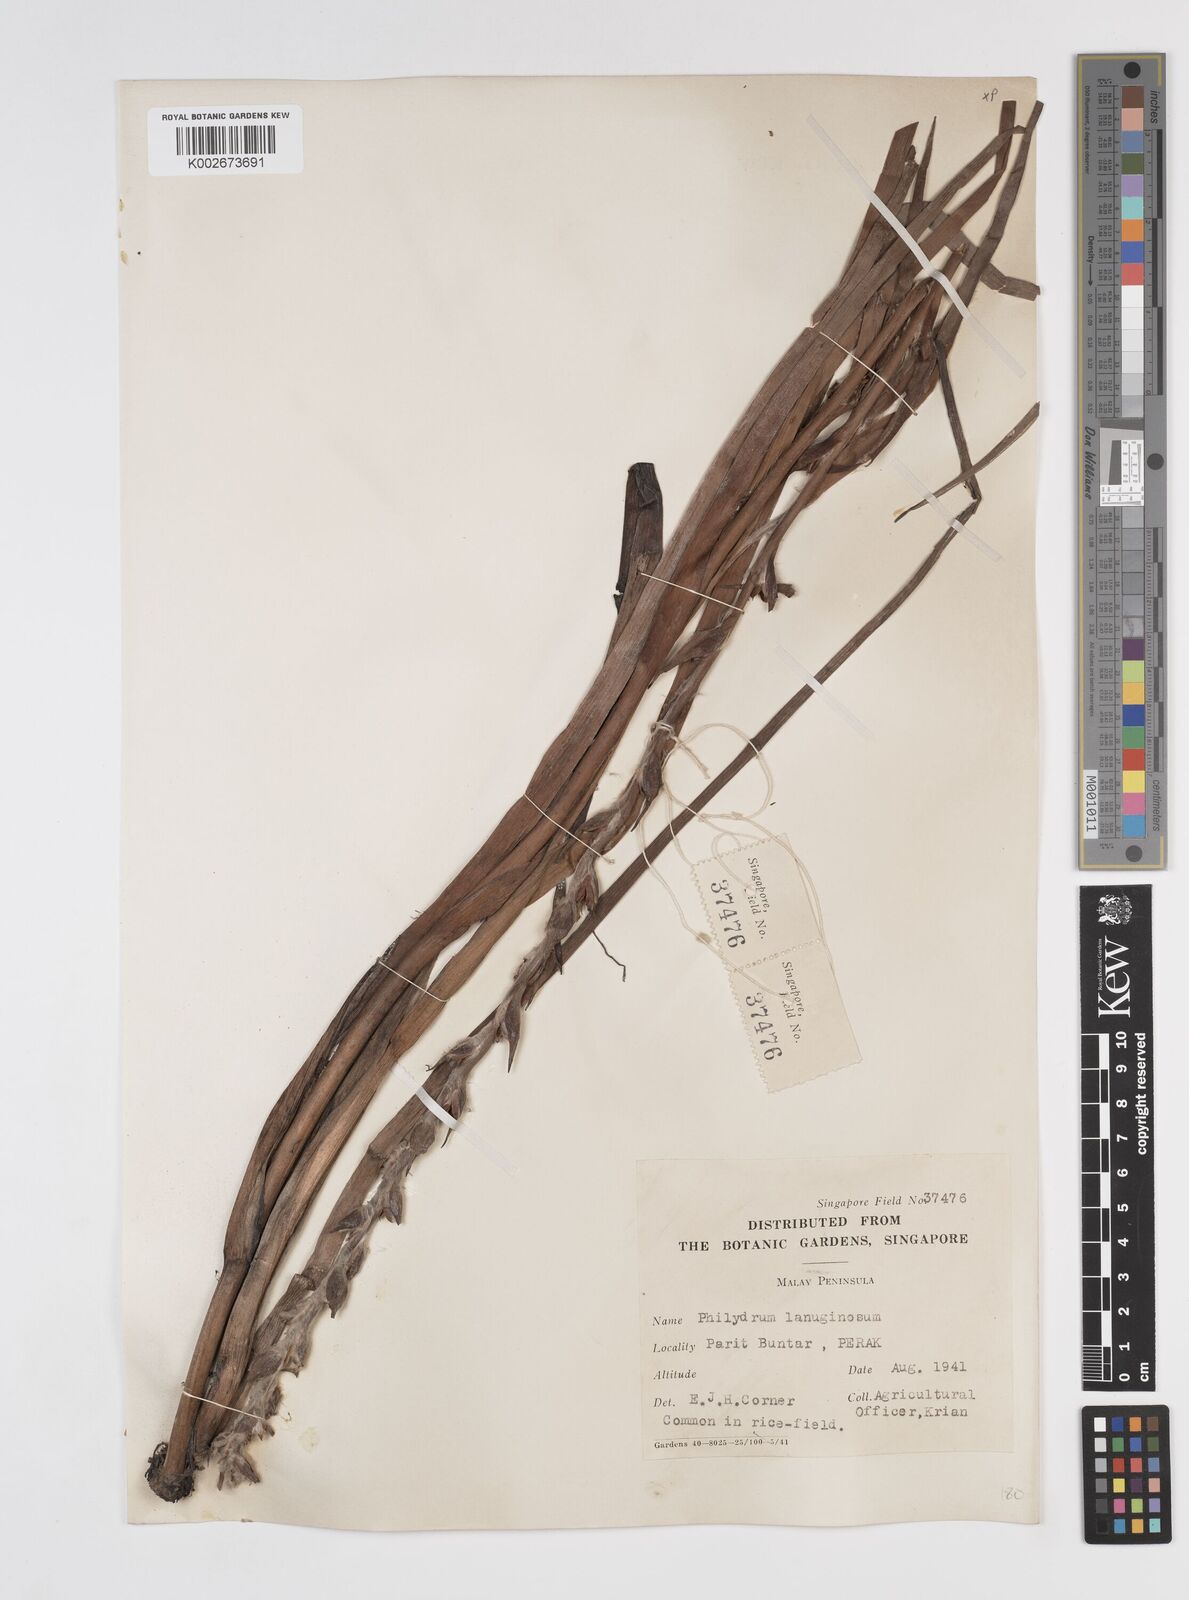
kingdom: Plantae
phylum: Tracheophyta
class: Liliopsida
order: Commelinales
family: Philydraceae
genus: Philydrum
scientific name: Philydrum lanuginosum
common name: Woolly frog's mouth
